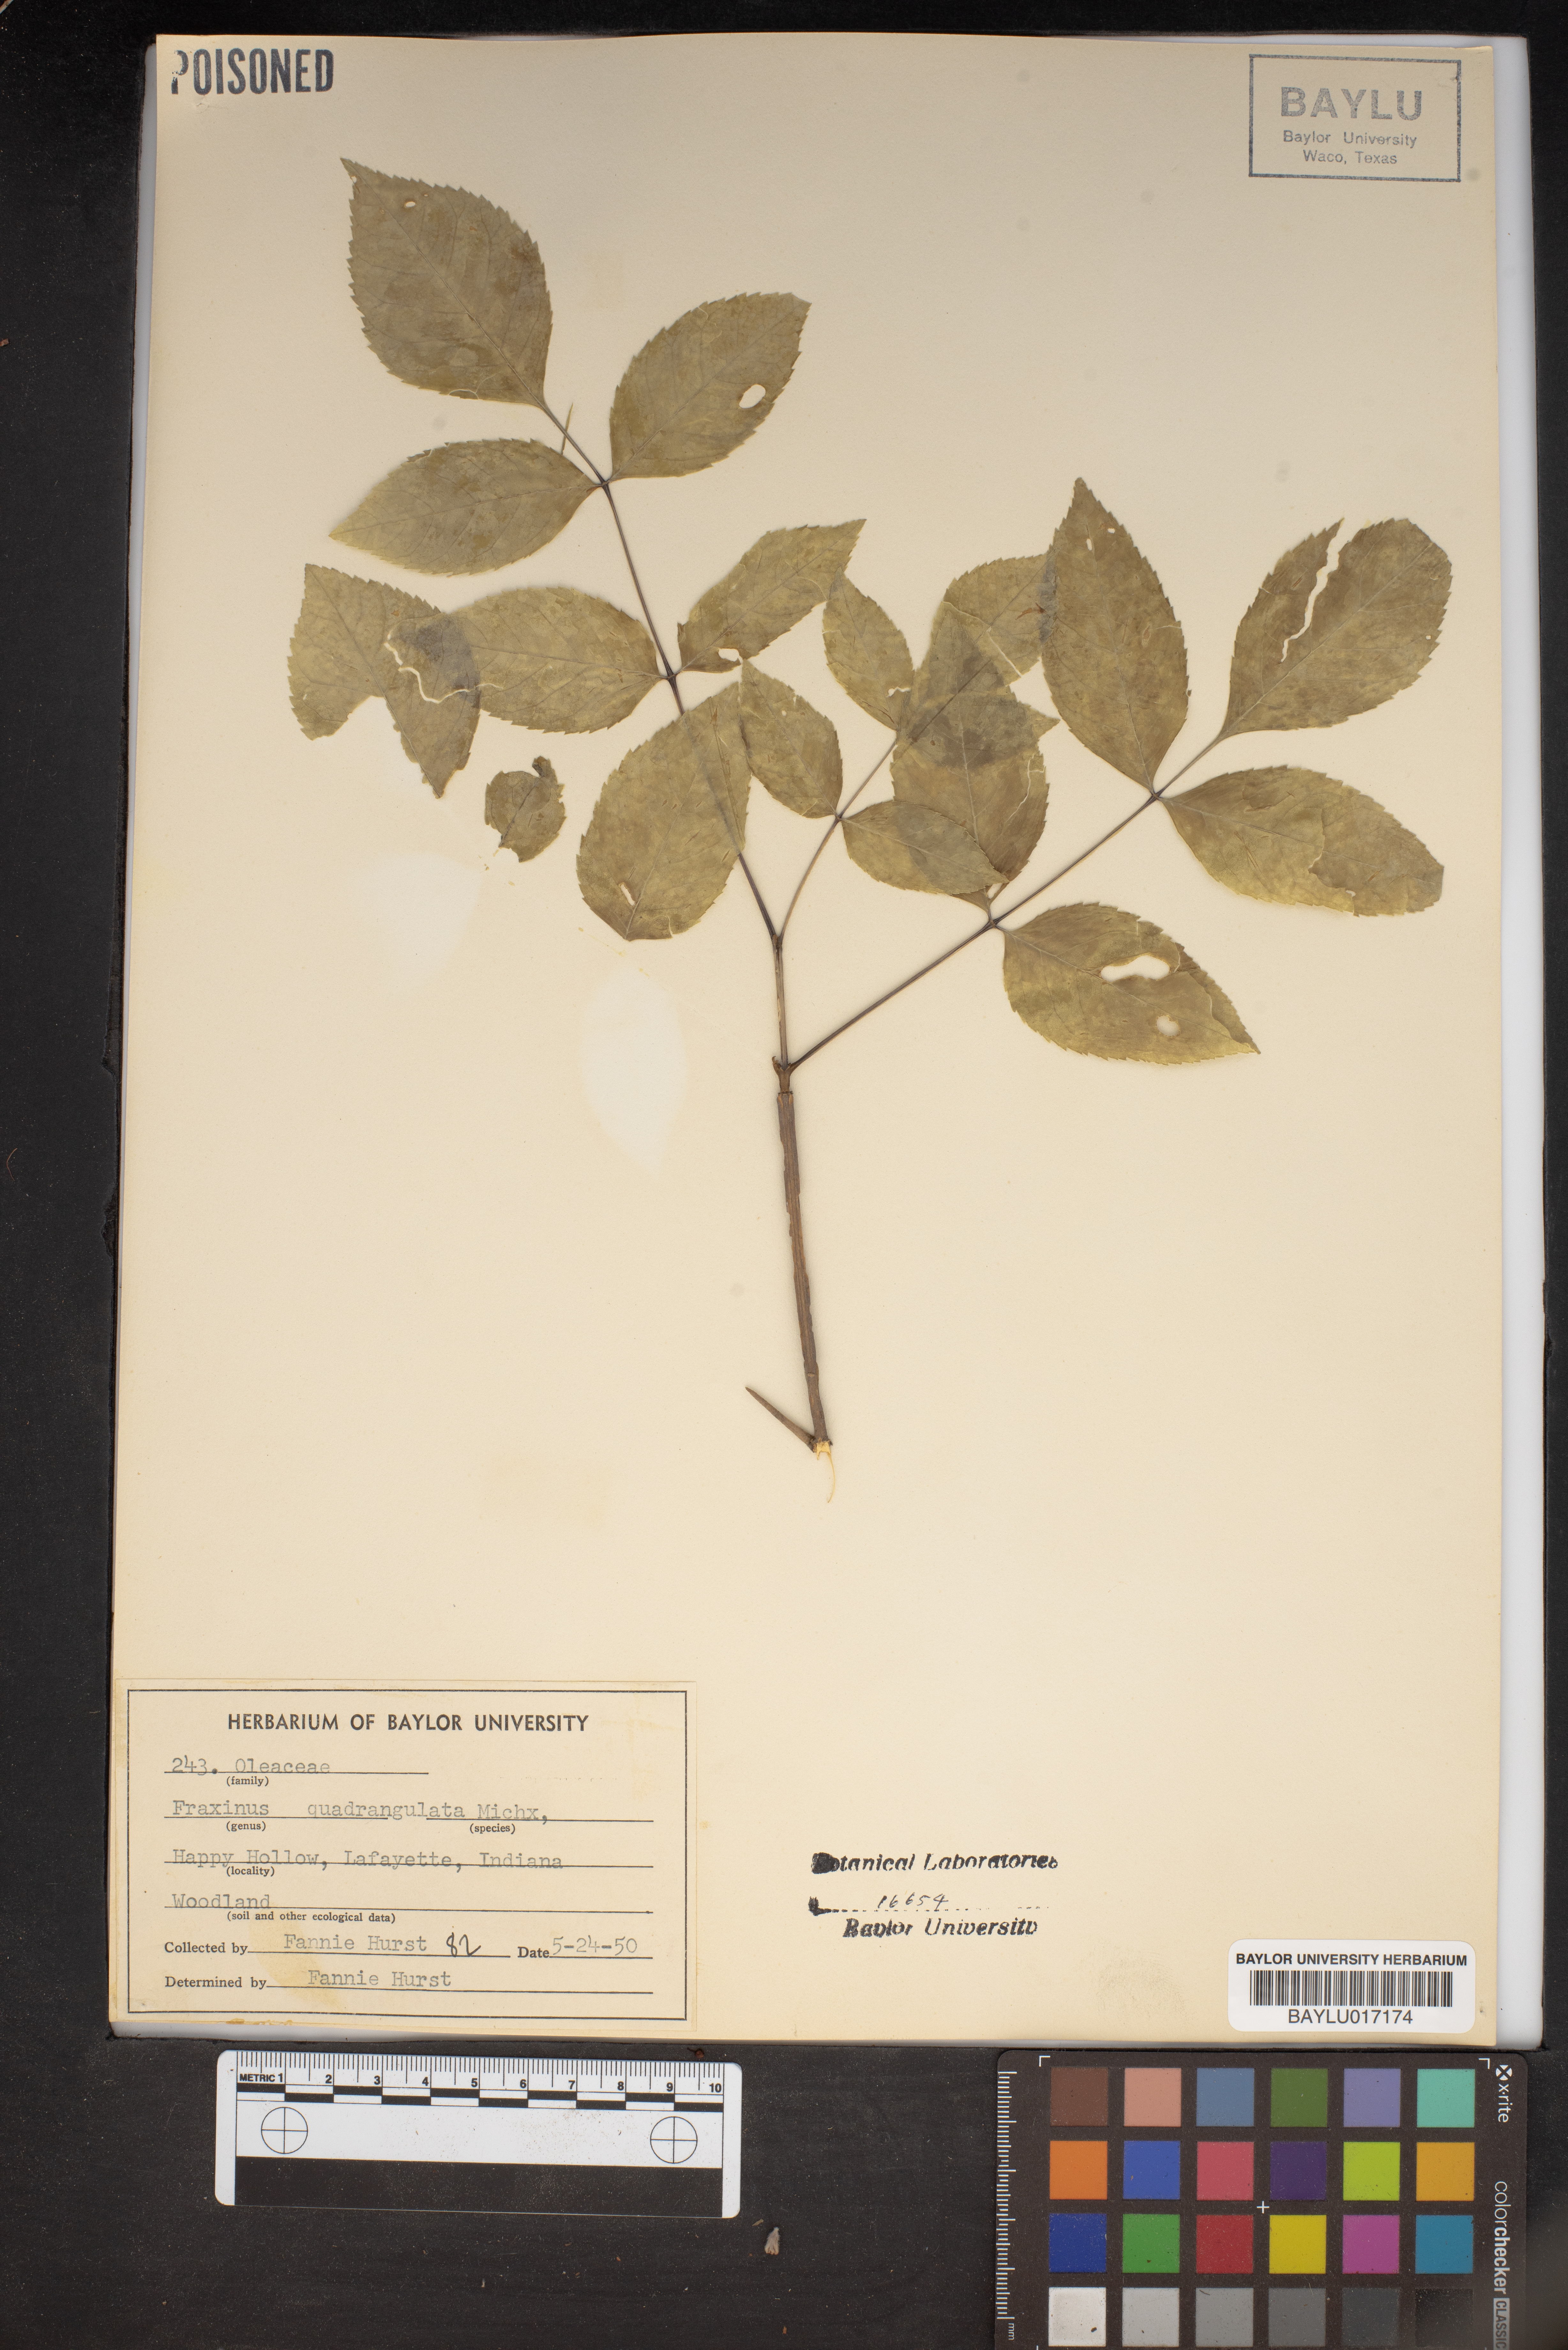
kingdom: Plantae
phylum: Tracheophyta
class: Magnoliopsida
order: Lamiales
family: Oleaceae
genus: Fraxinus
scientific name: Fraxinus quadrangulata
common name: Blue ash
